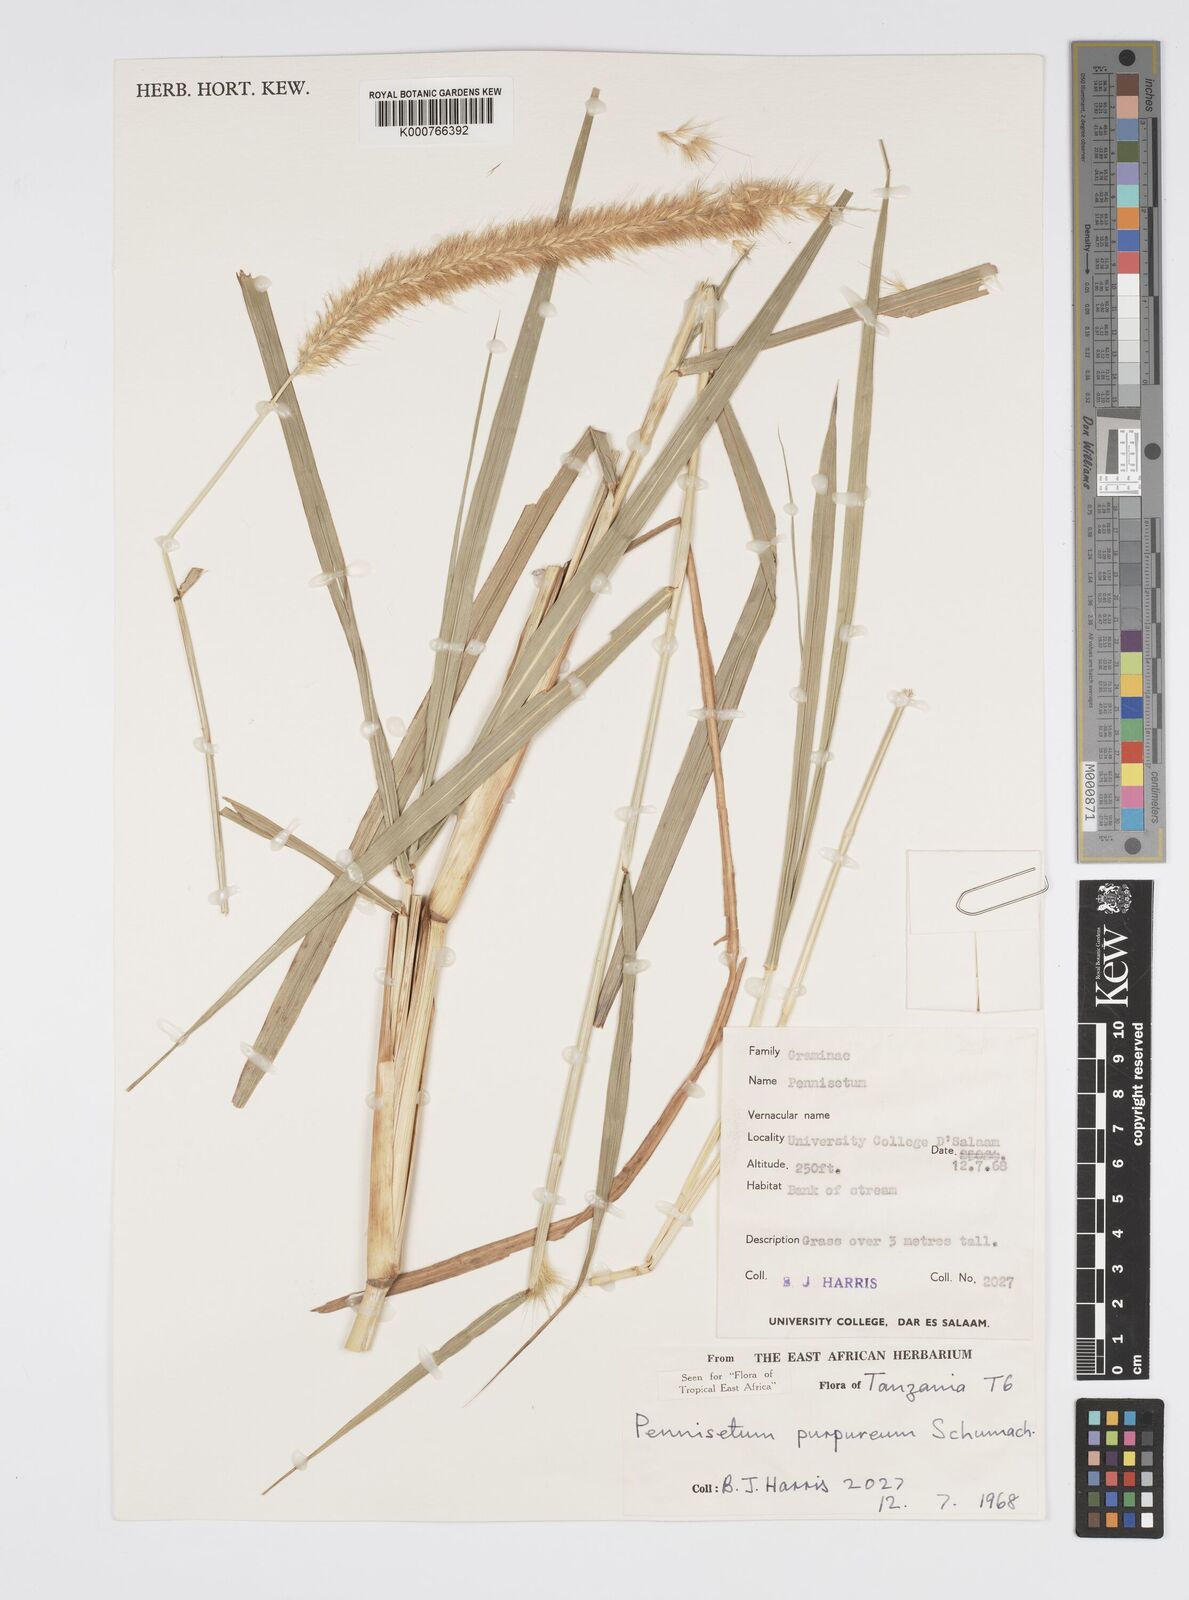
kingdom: Plantae
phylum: Tracheophyta
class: Liliopsida
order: Poales
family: Poaceae
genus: Cenchrus
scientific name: Cenchrus purpureus
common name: Elephant grass
